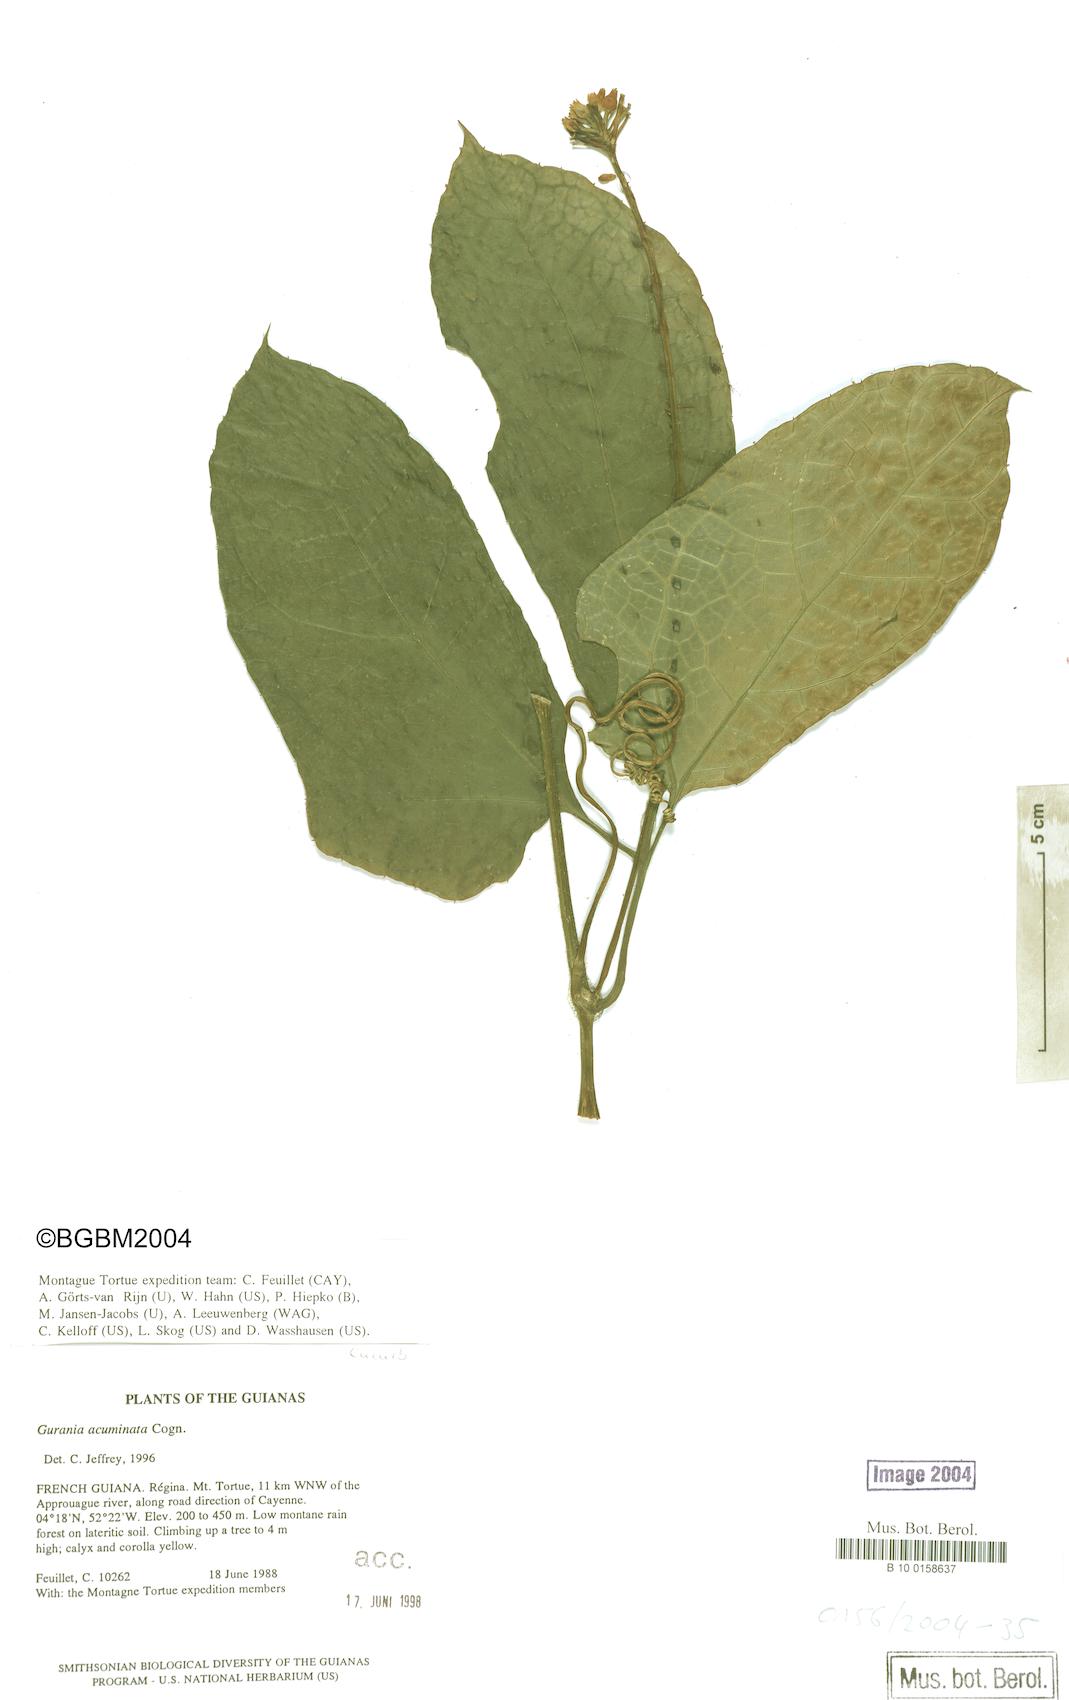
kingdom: Plantae
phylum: Tracheophyta
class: Magnoliopsida
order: Cucurbitales
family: Cucurbitaceae
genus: Gurania
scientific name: Gurania bignoniacea
